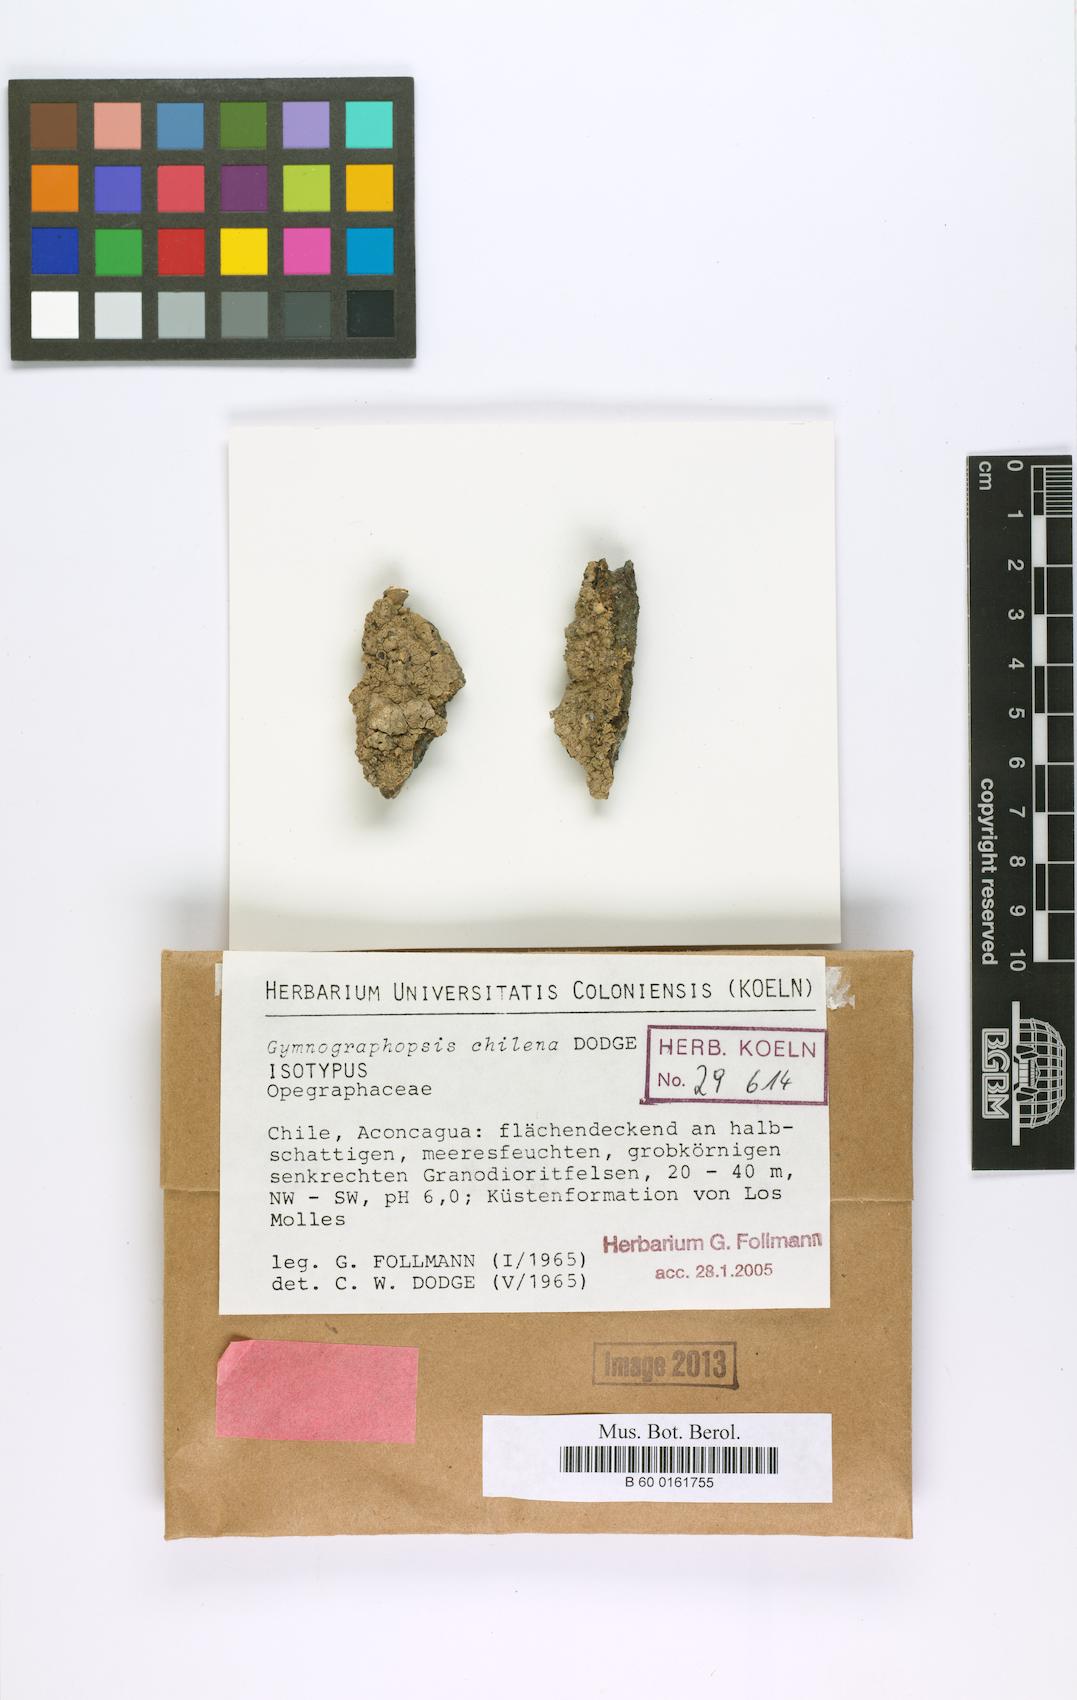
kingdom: Fungi
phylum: Ascomycota
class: Lecanoromycetes
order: Ostropales
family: Graphidaceae
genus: Gymnographopsis
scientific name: Gymnographopsis chilena
